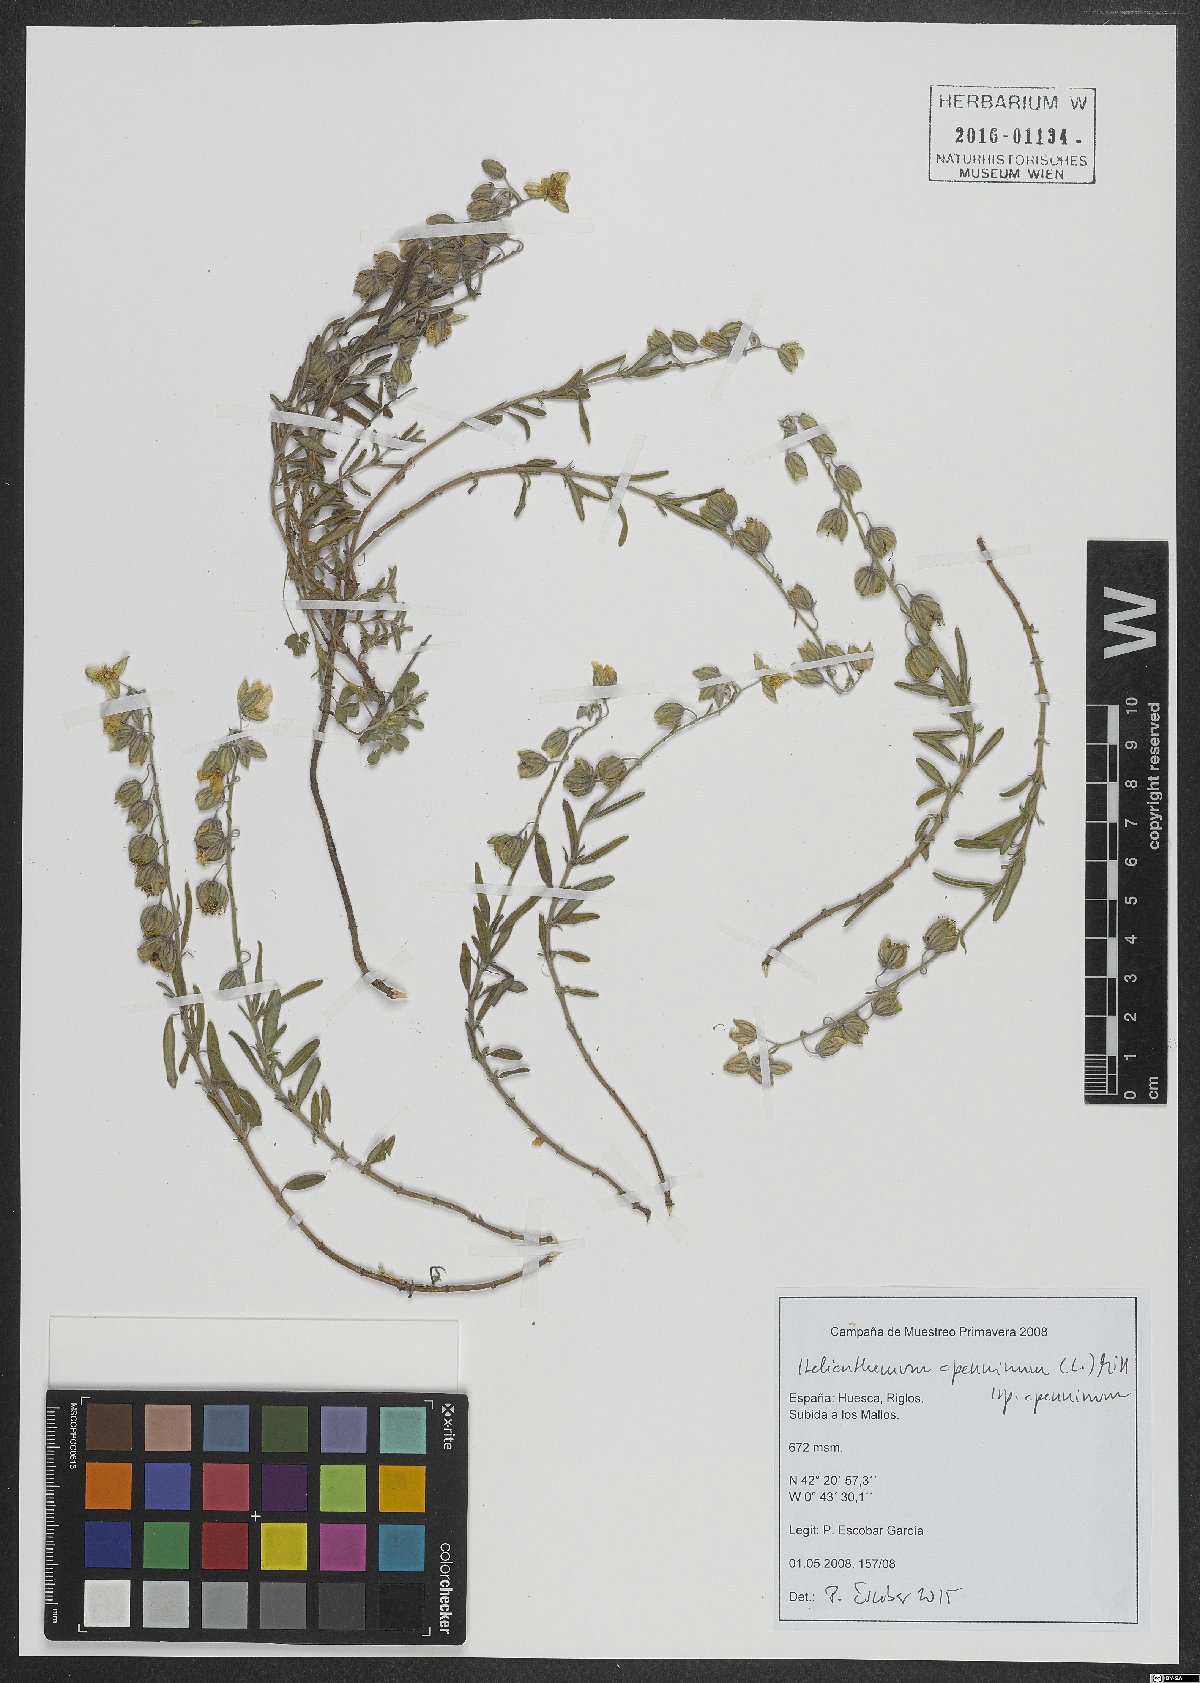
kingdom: Plantae
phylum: Tracheophyta
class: Magnoliopsida
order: Malvales
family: Cistaceae
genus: Helianthemum
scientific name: Helianthemum apenninum
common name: White rock-rose
